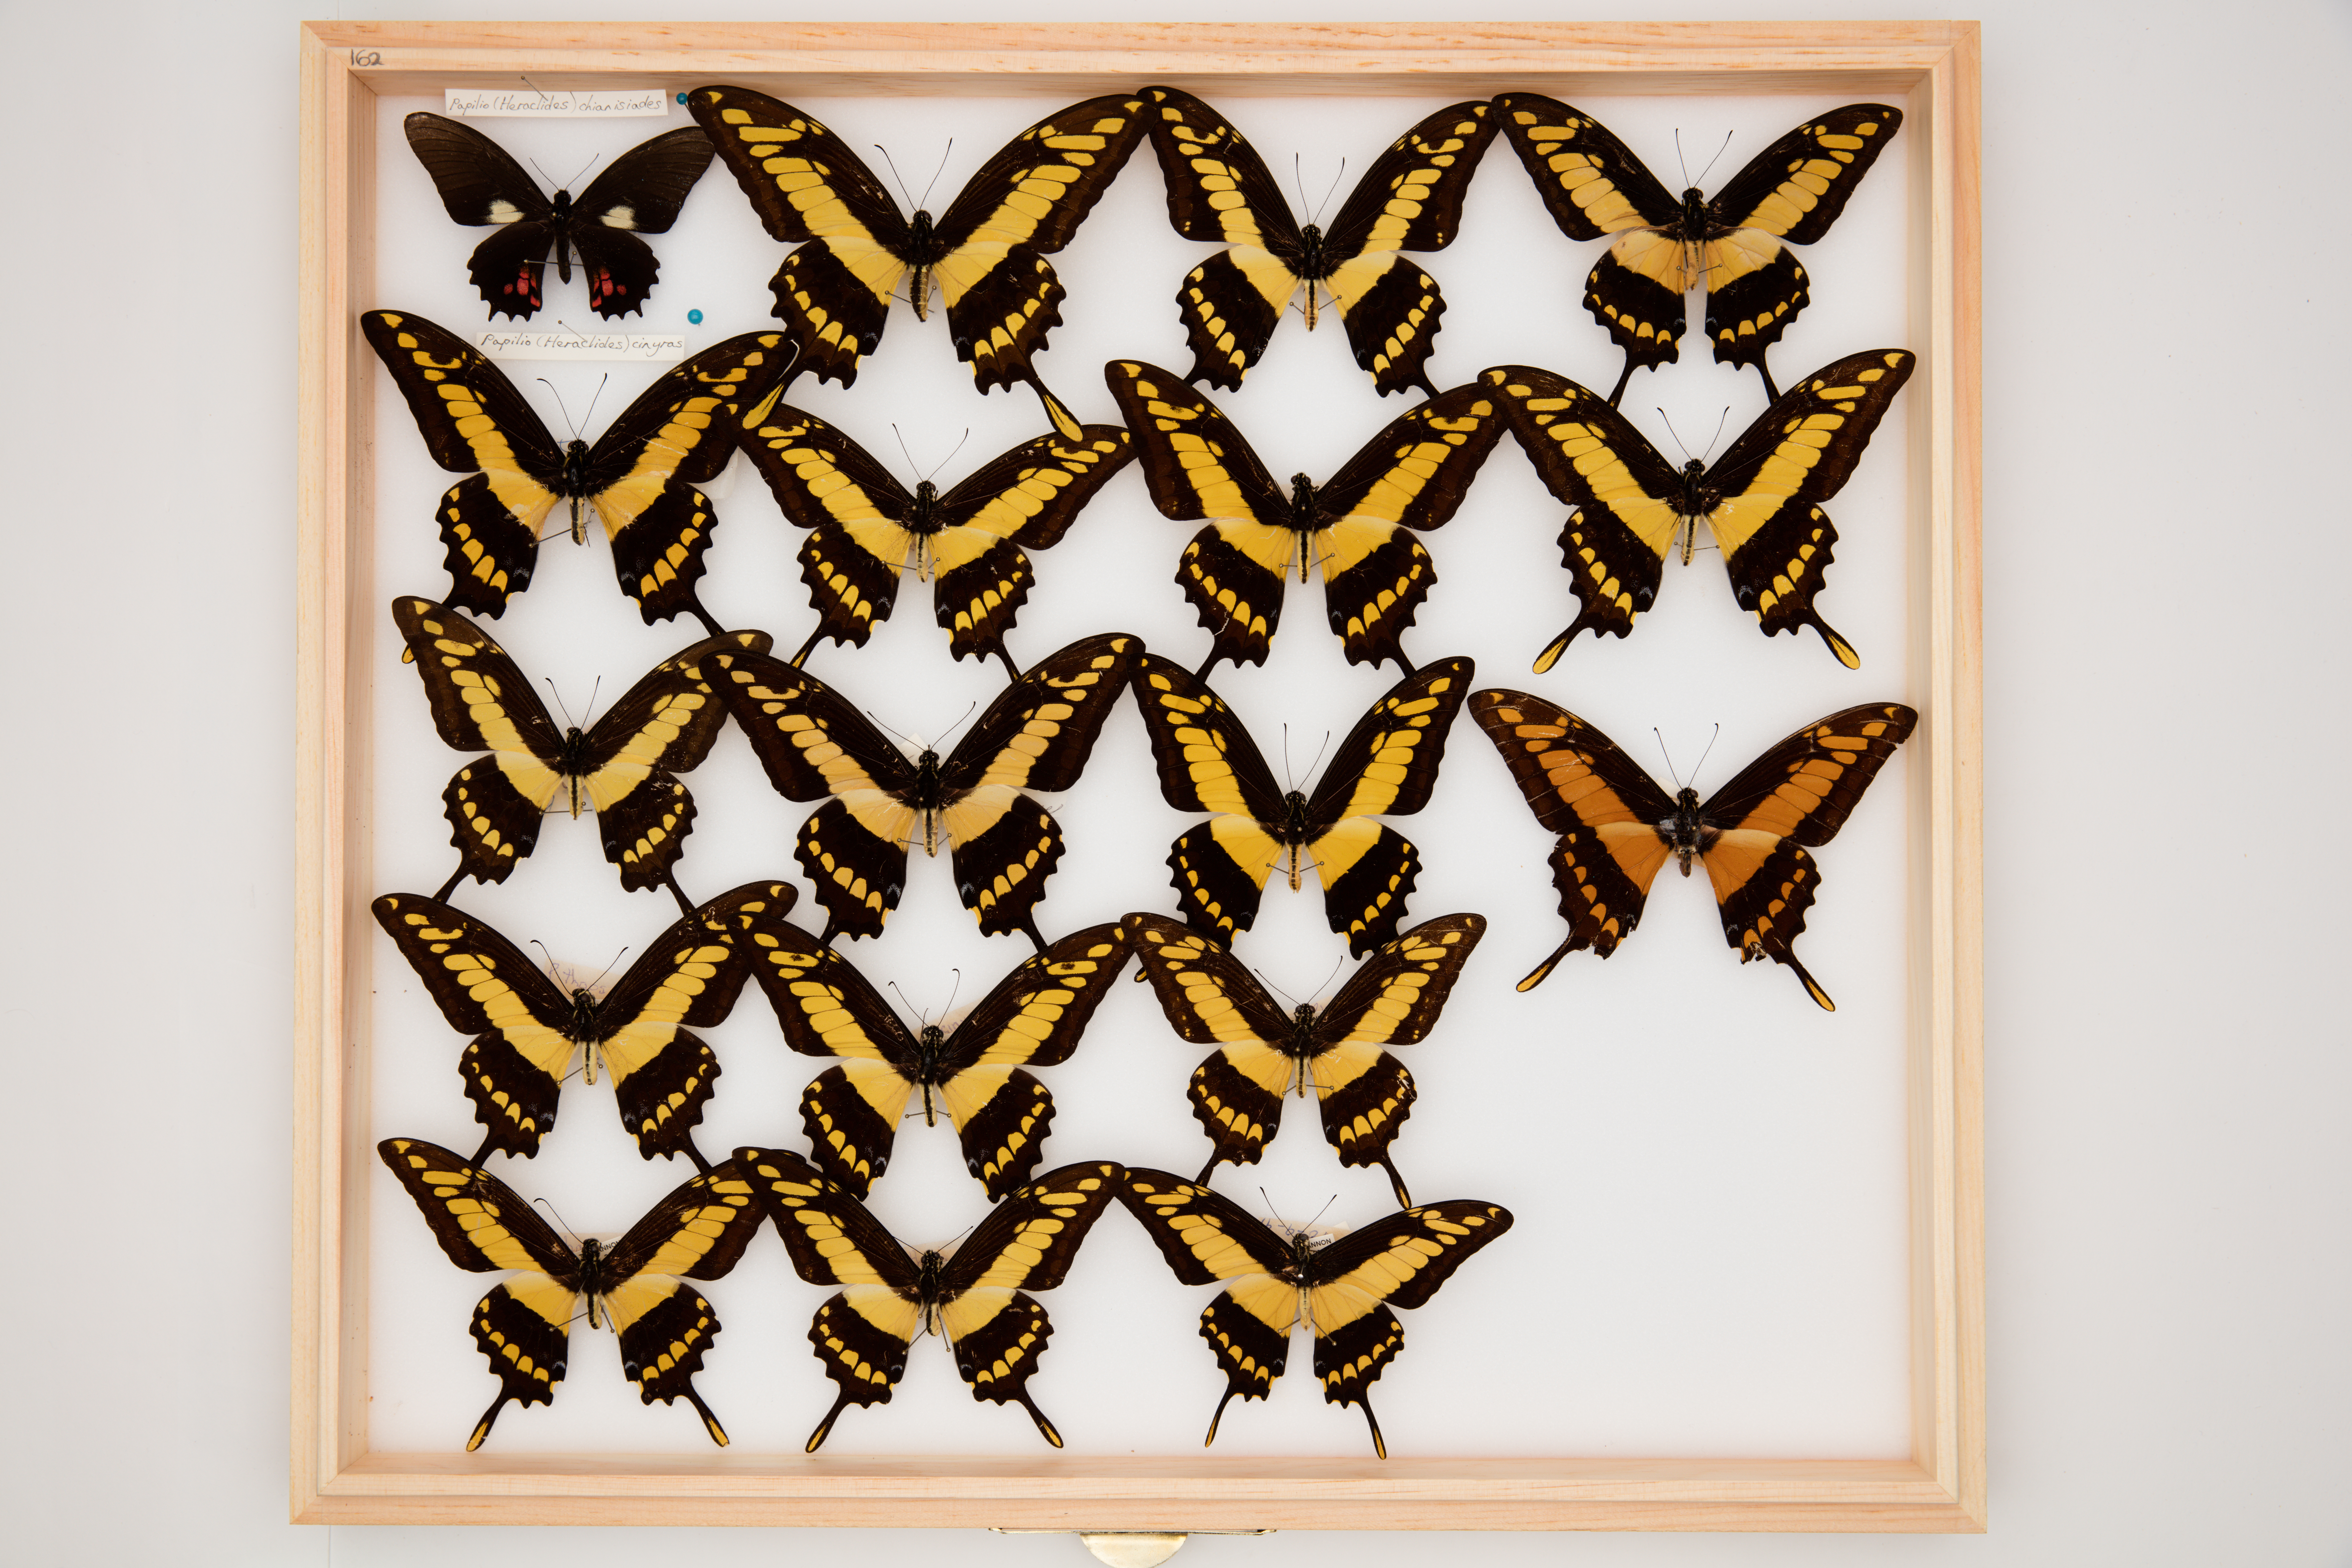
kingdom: Animalia
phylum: Arthropoda
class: Insecta
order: Lepidoptera
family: Lycaenidae
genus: Curetis
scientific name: Curetis thetis
